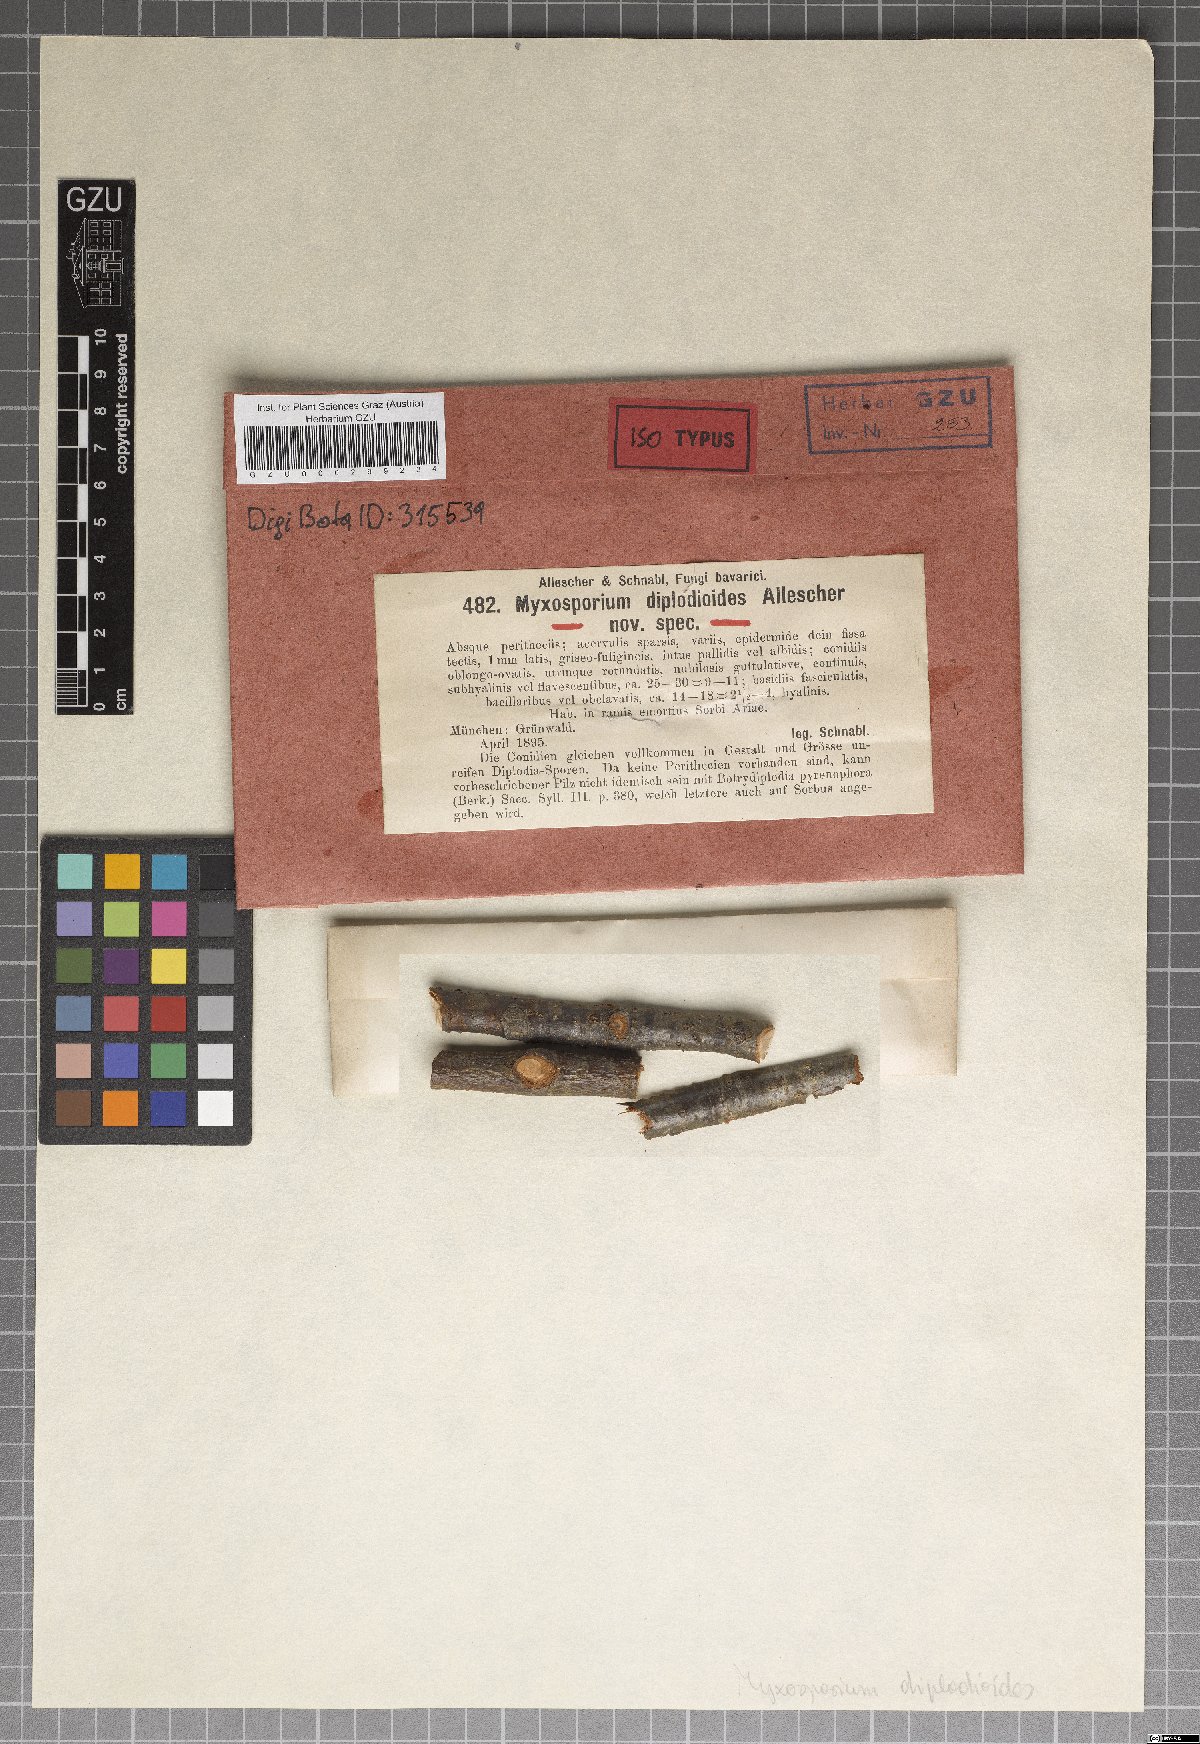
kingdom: Fungi
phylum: Ascomycota
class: Leotiomycetes
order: Helotiales
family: Dermateaceae
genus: Cryptosporiopsis
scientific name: Cryptosporiopsis diplodioides
